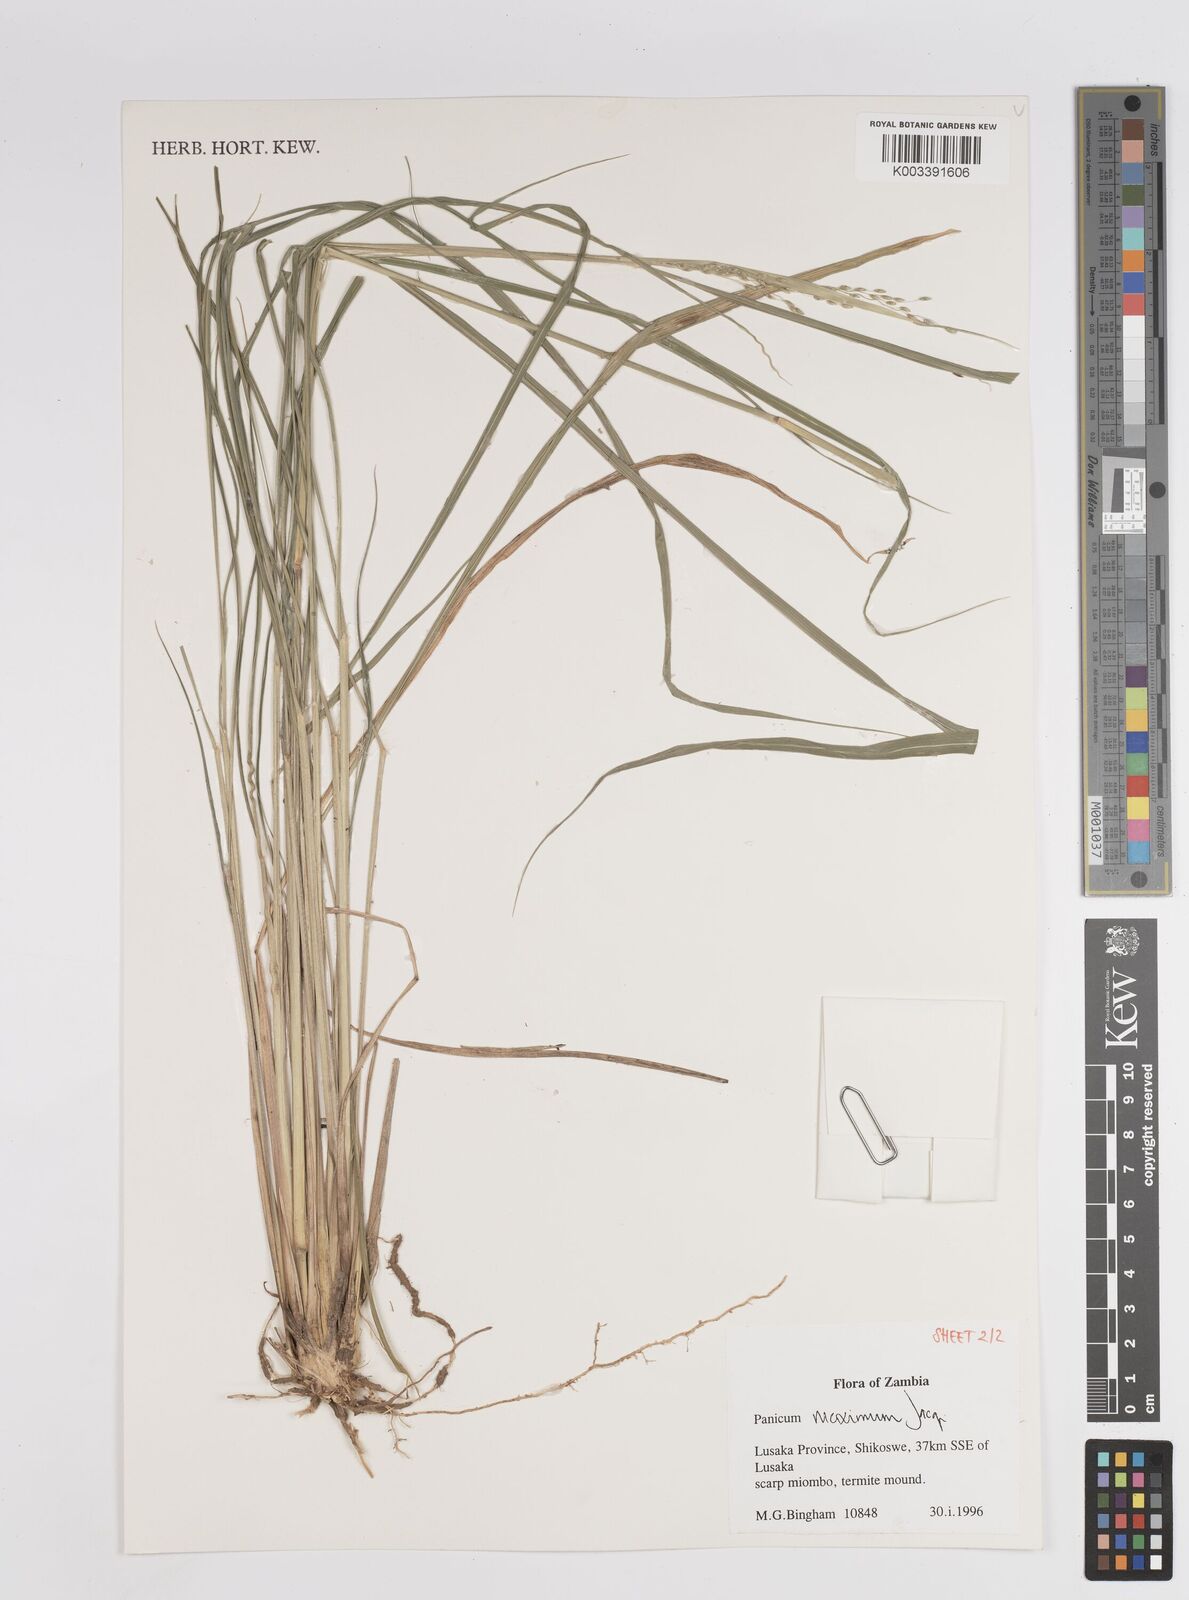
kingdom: Plantae
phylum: Tracheophyta
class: Liliopsida
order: Poales
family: Poaceae
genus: Megathyrsus
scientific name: Megathyrsus maximus
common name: Guineagrass
